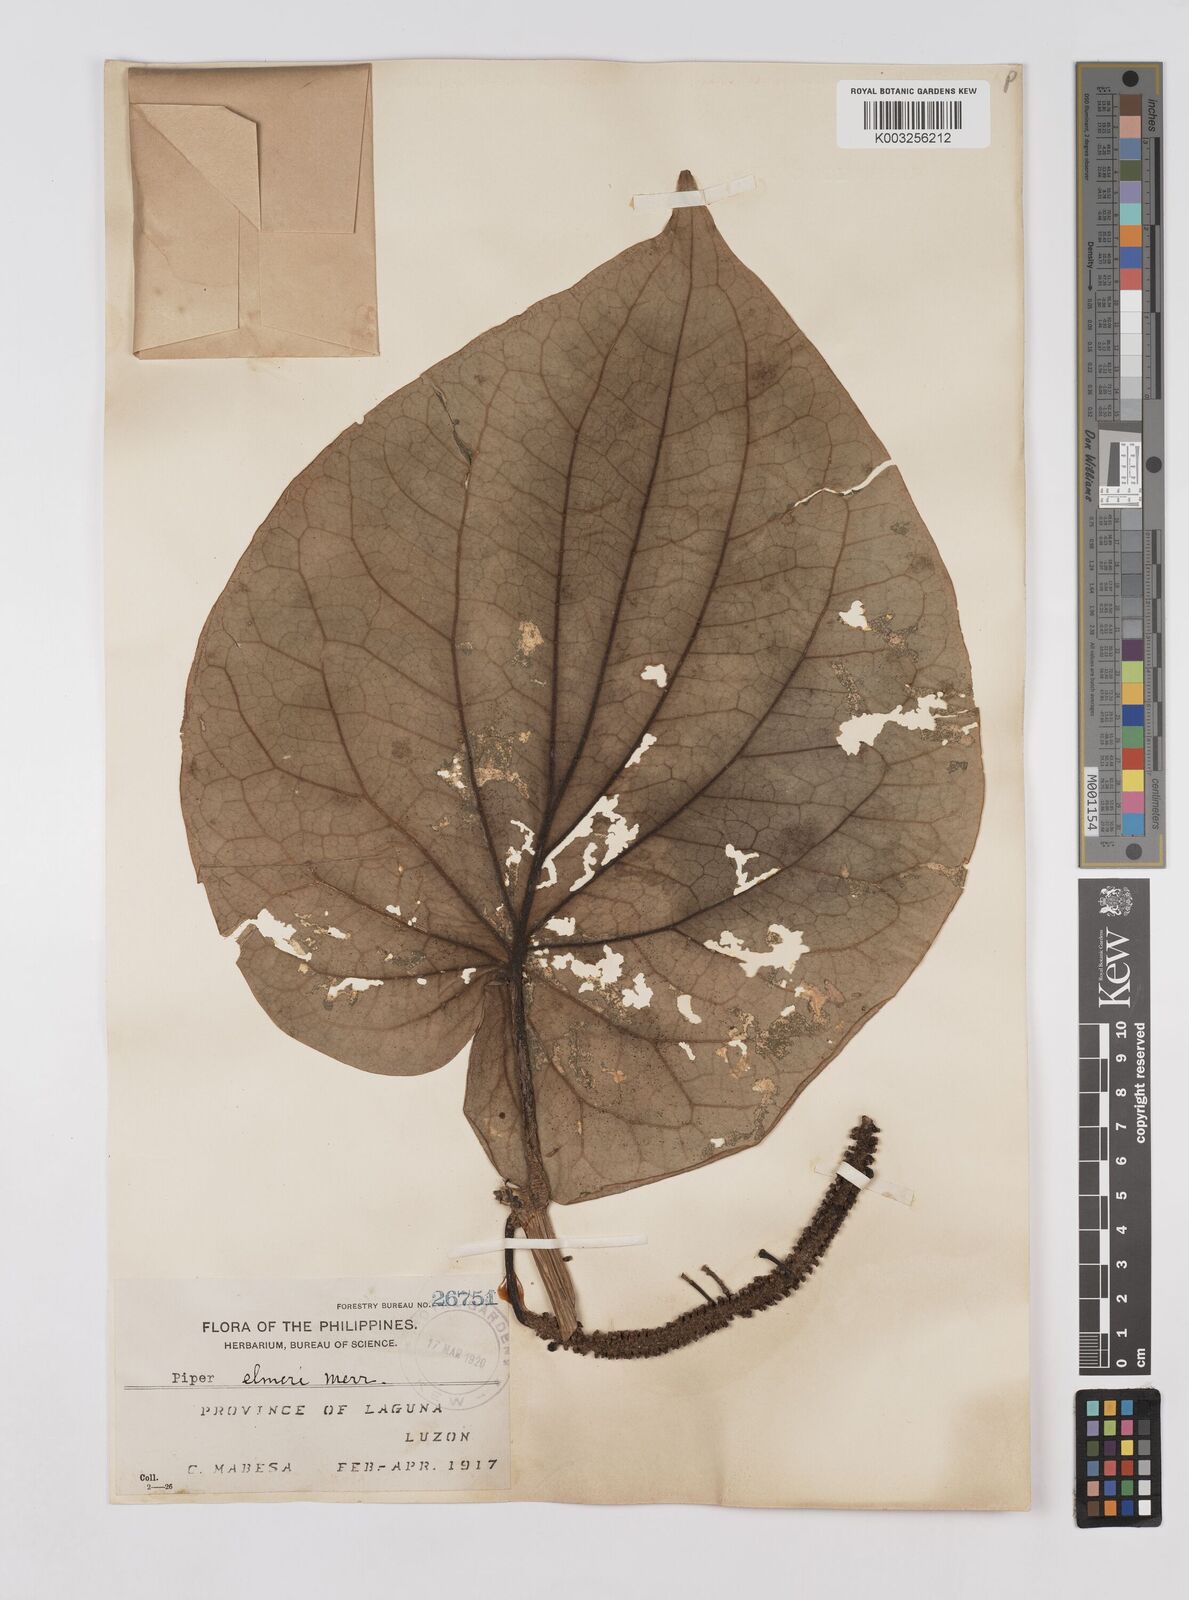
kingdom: Plantae
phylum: Tracheophyta
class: Magnoliopsida
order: Piperales
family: Piperaceae
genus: Piper
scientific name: Piper elmeri
